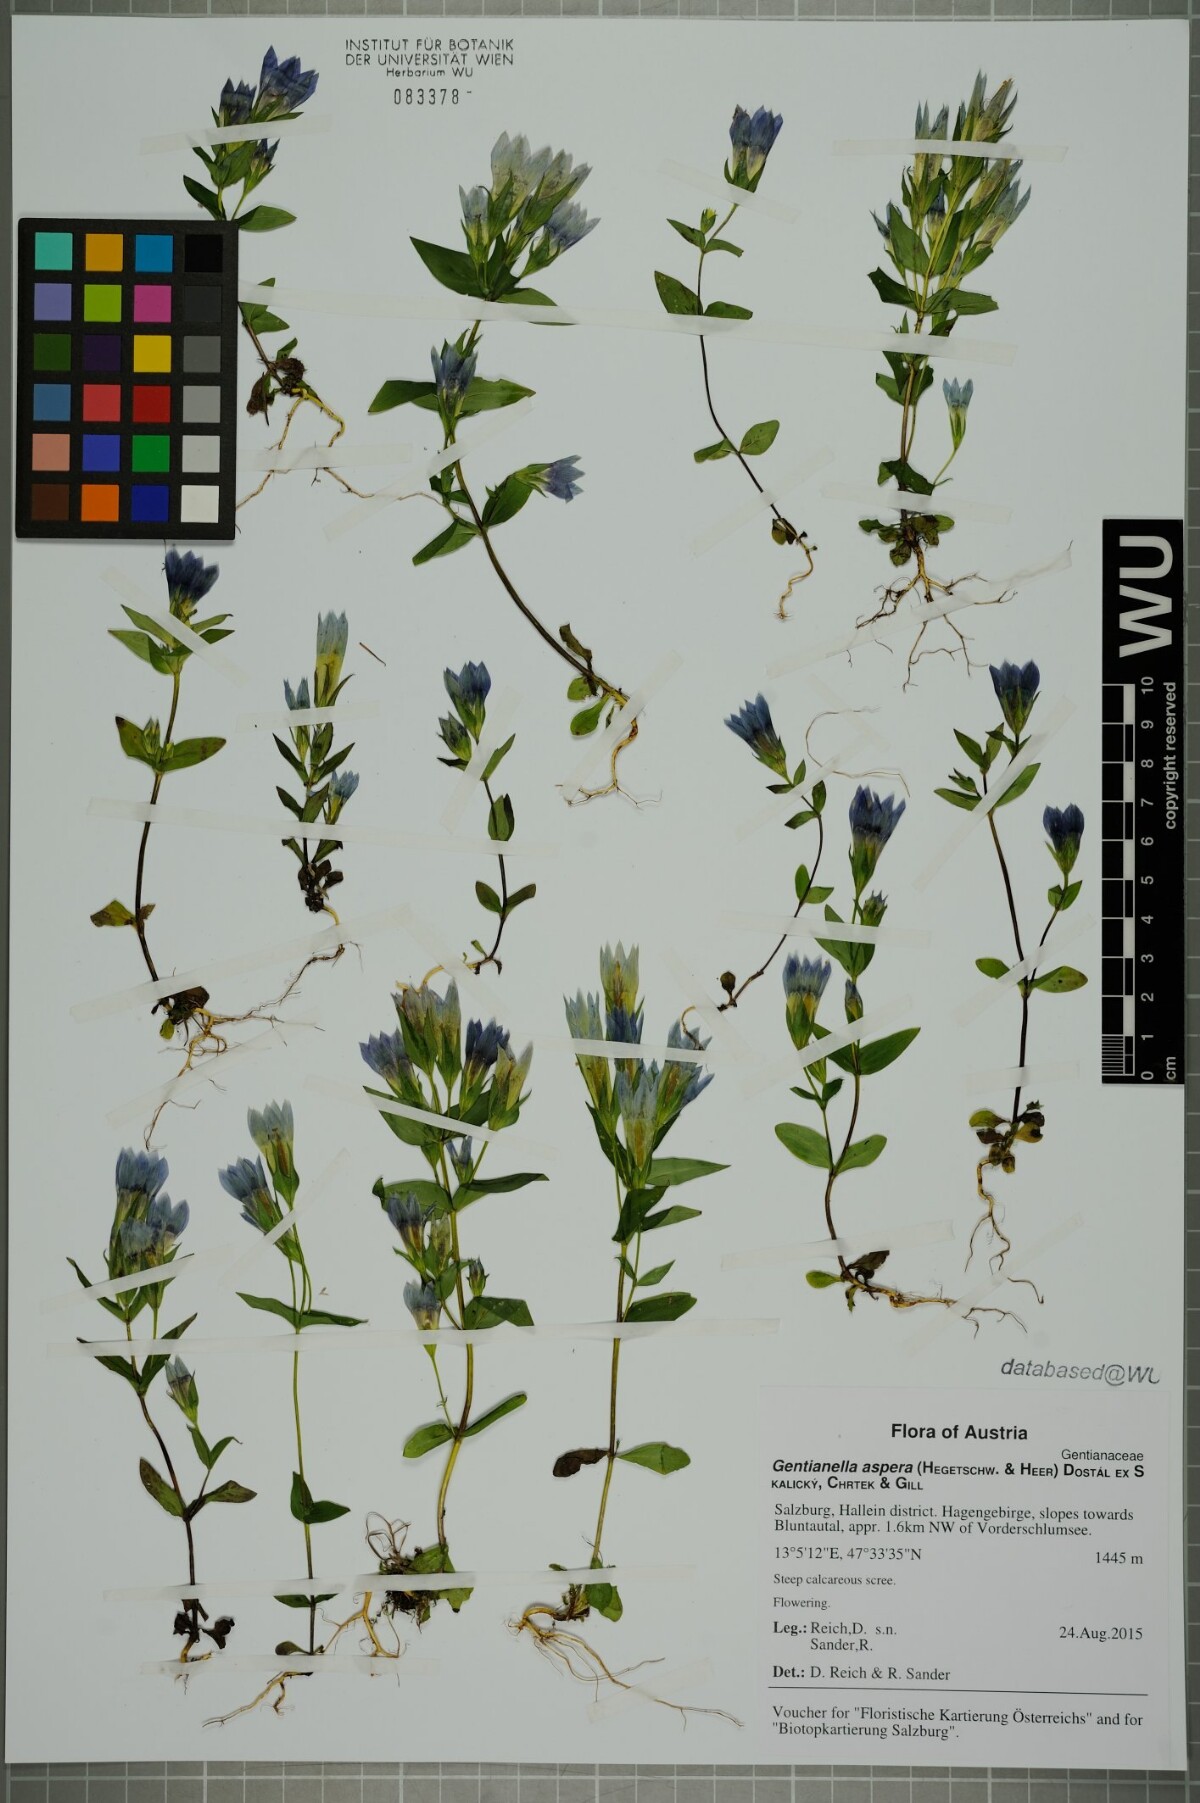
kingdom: Plantae
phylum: Tracheophyta
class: Magnoliopsida
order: Gentianales
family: Gentianaceae
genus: Gentianella
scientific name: Gentianella obtusifolia
